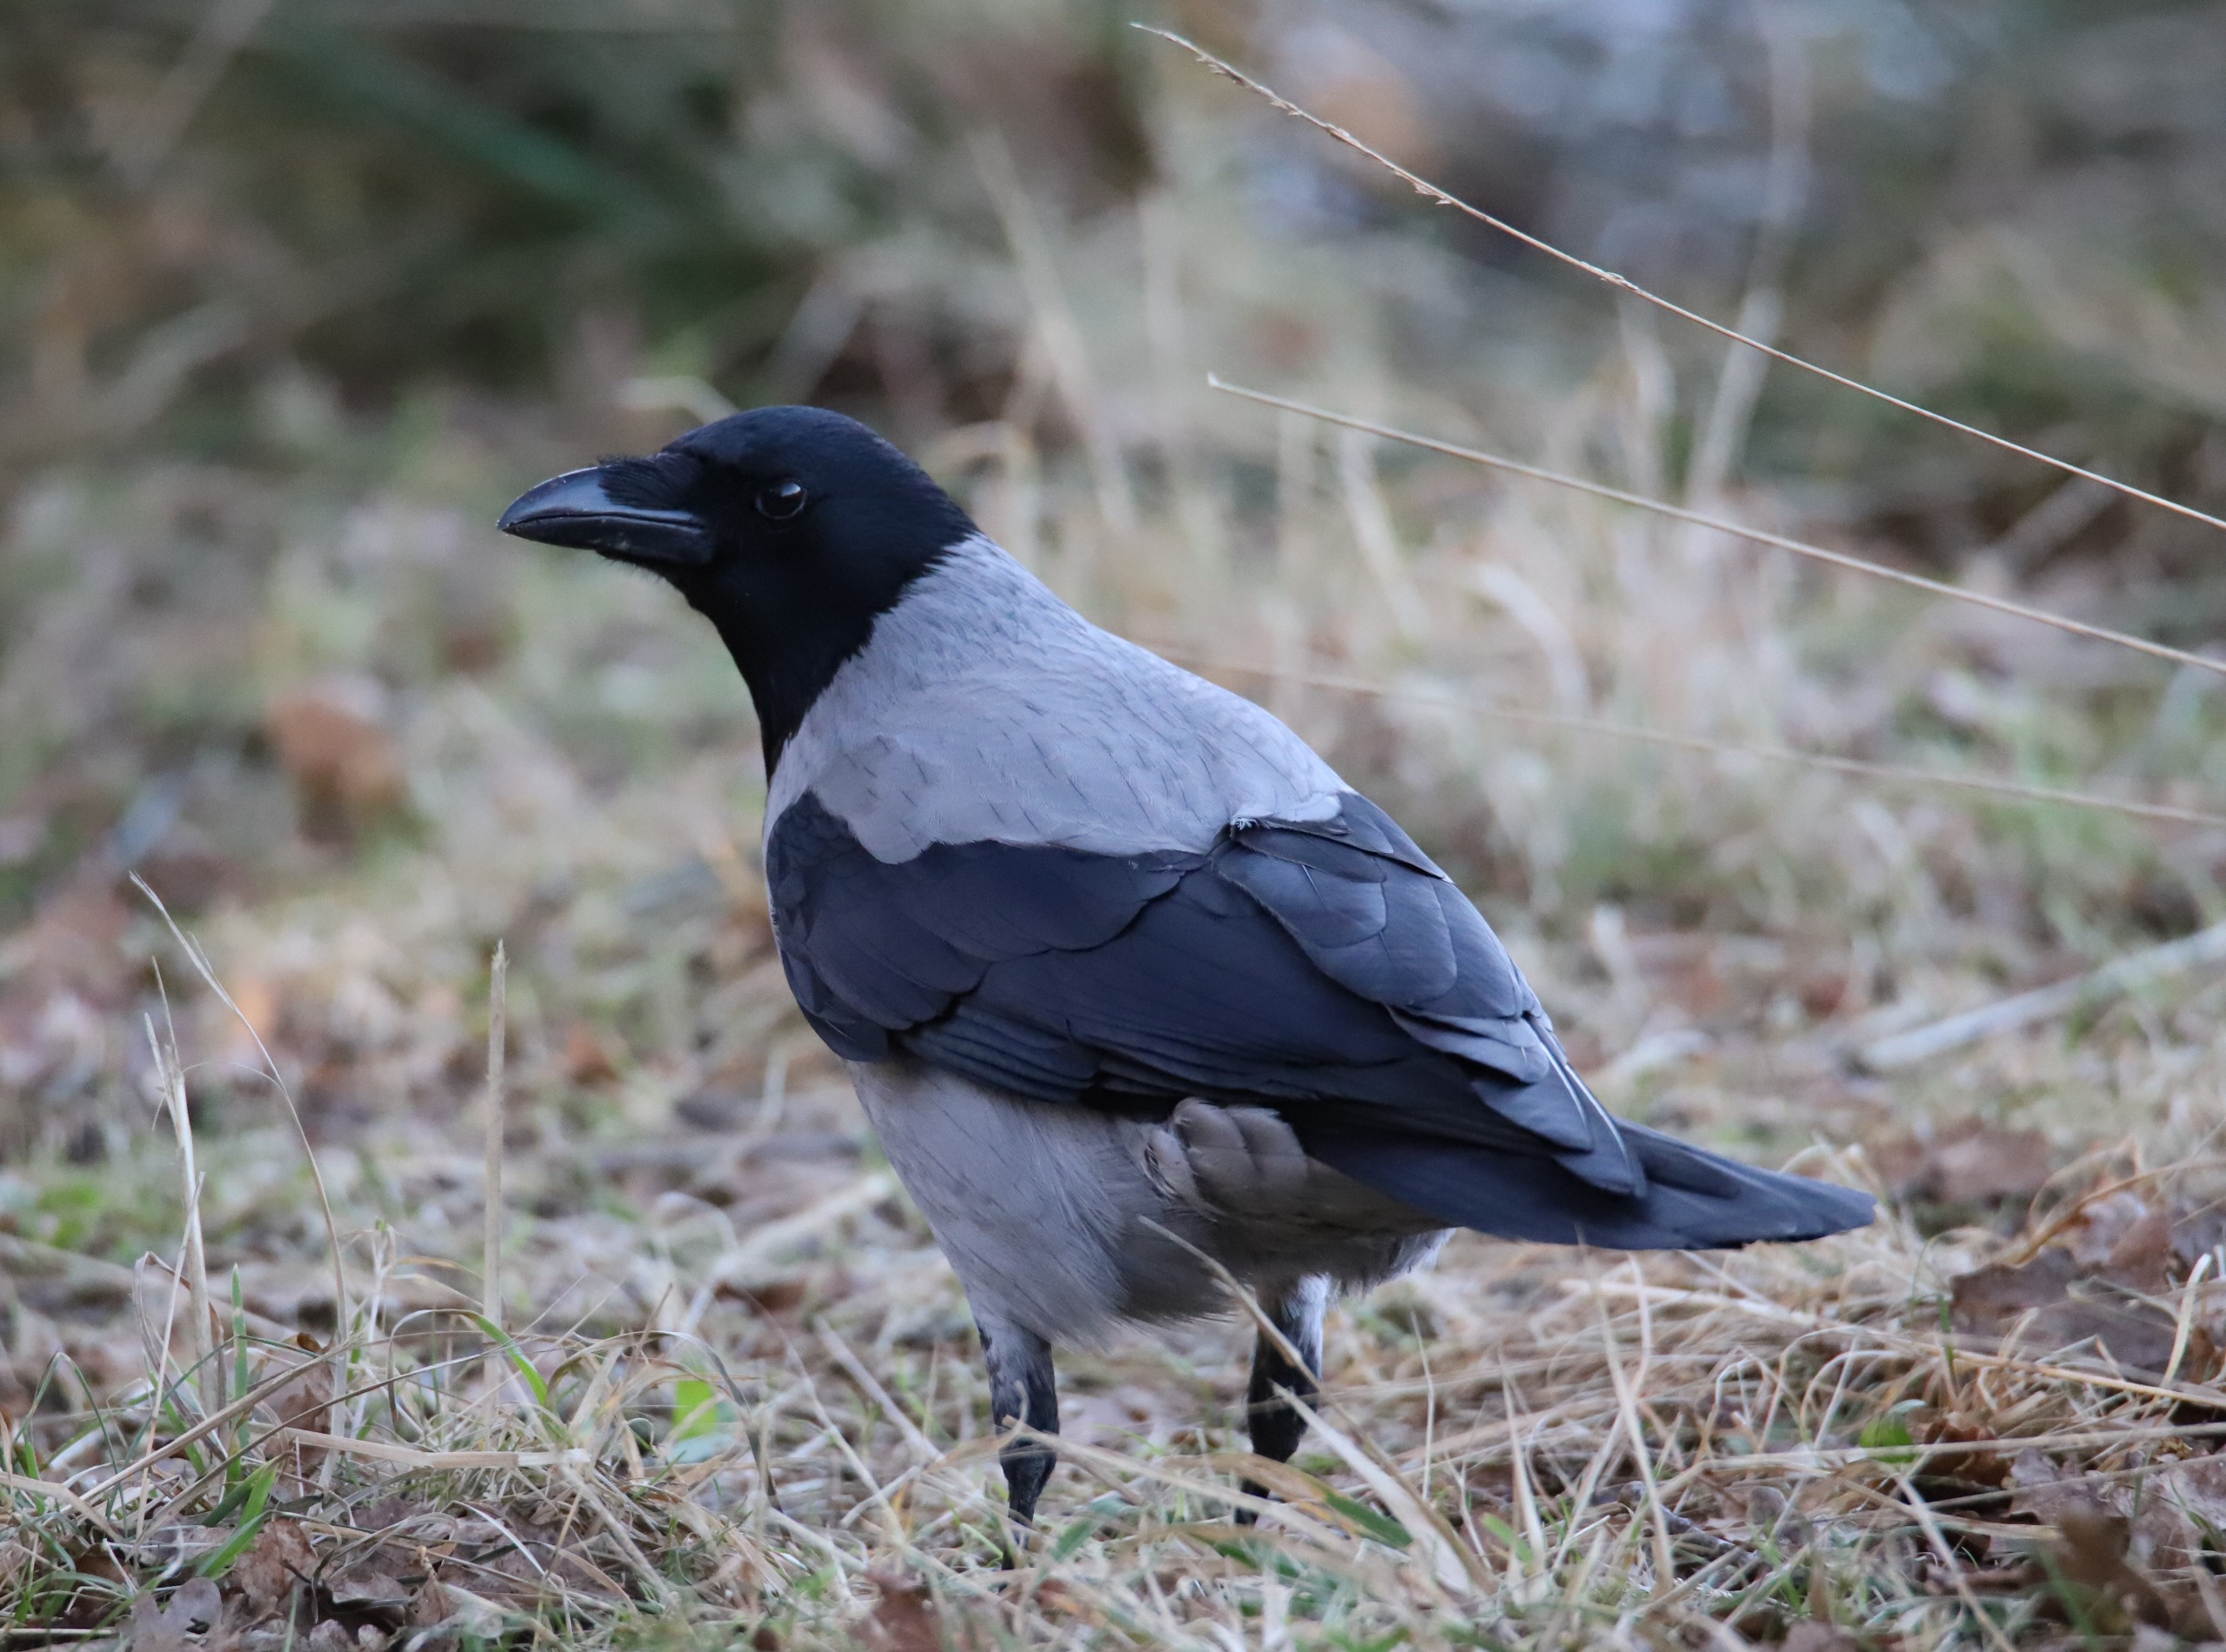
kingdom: Animalia
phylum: Chordata
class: Aves
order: Passeriformes
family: Corvidae
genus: Corvus
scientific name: Corvus cornix
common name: Gråkrage
